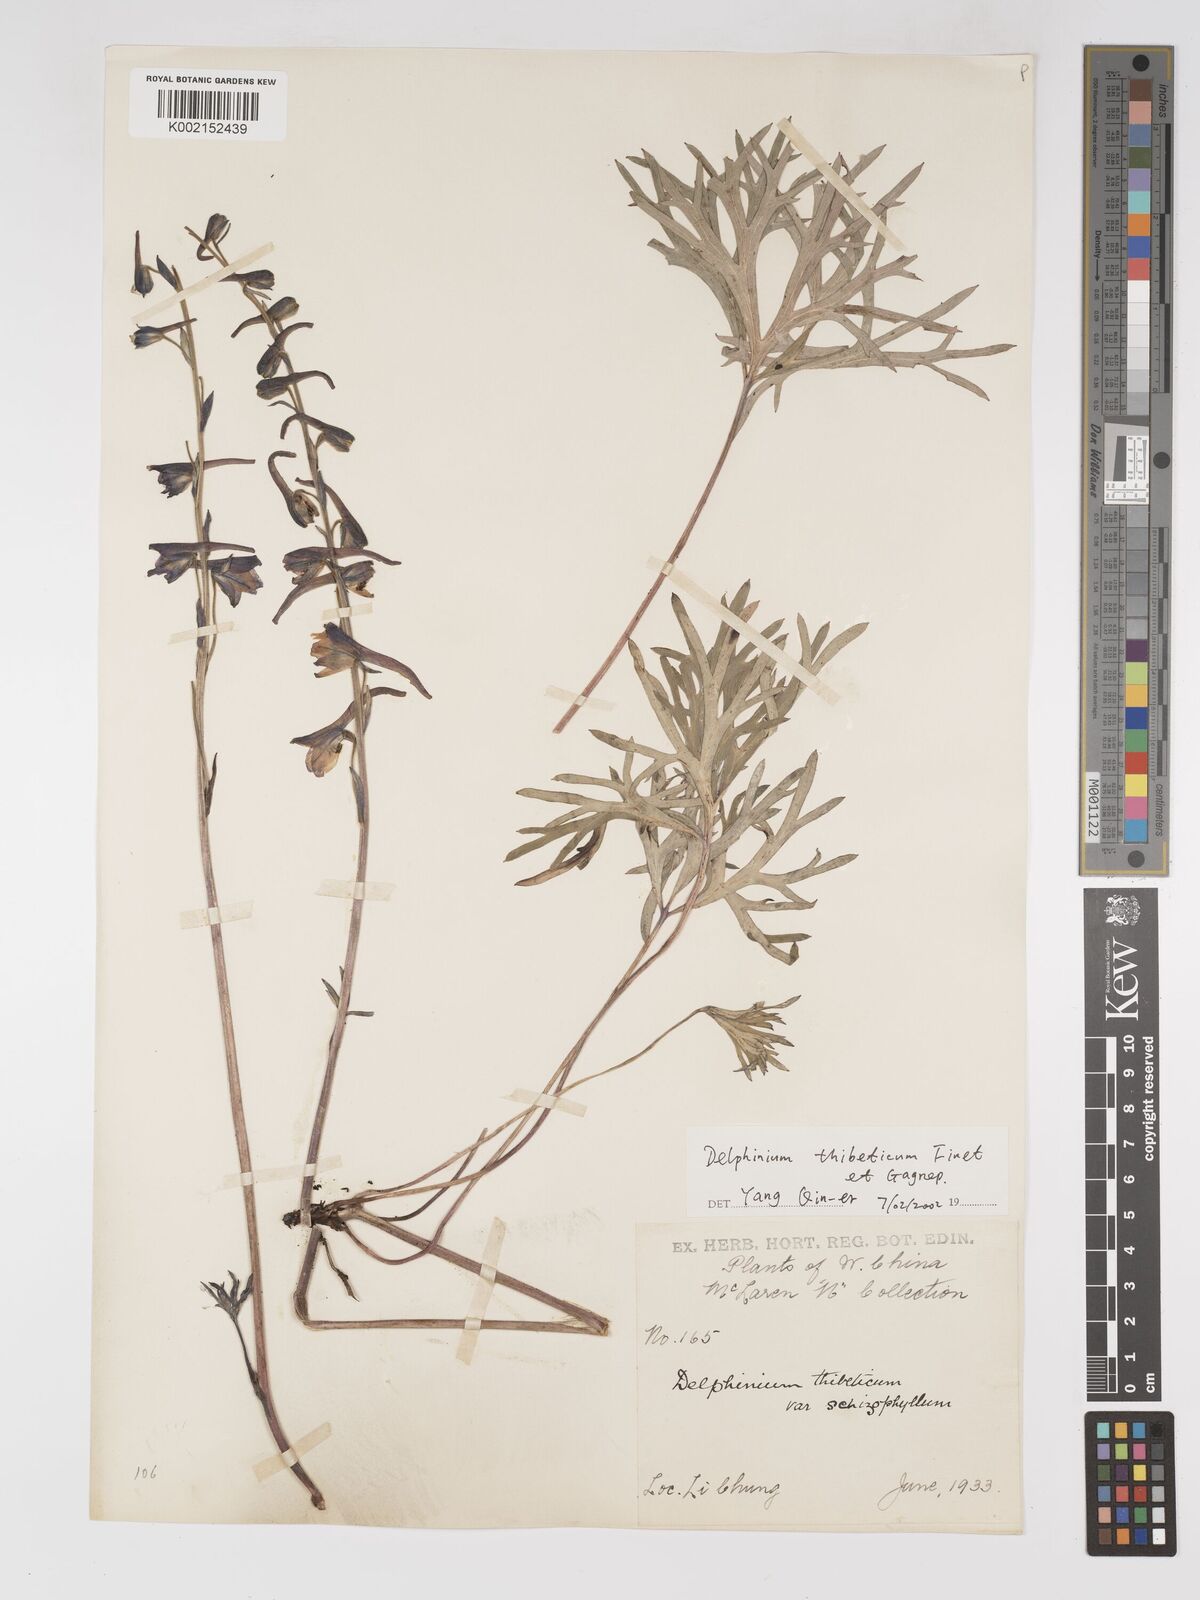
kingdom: Plantae
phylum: Tracheophyta
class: Magnoliopsida
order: Ranunculales
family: Ranunculaceae
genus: Delphinium
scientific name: Delphinium thibeticum
